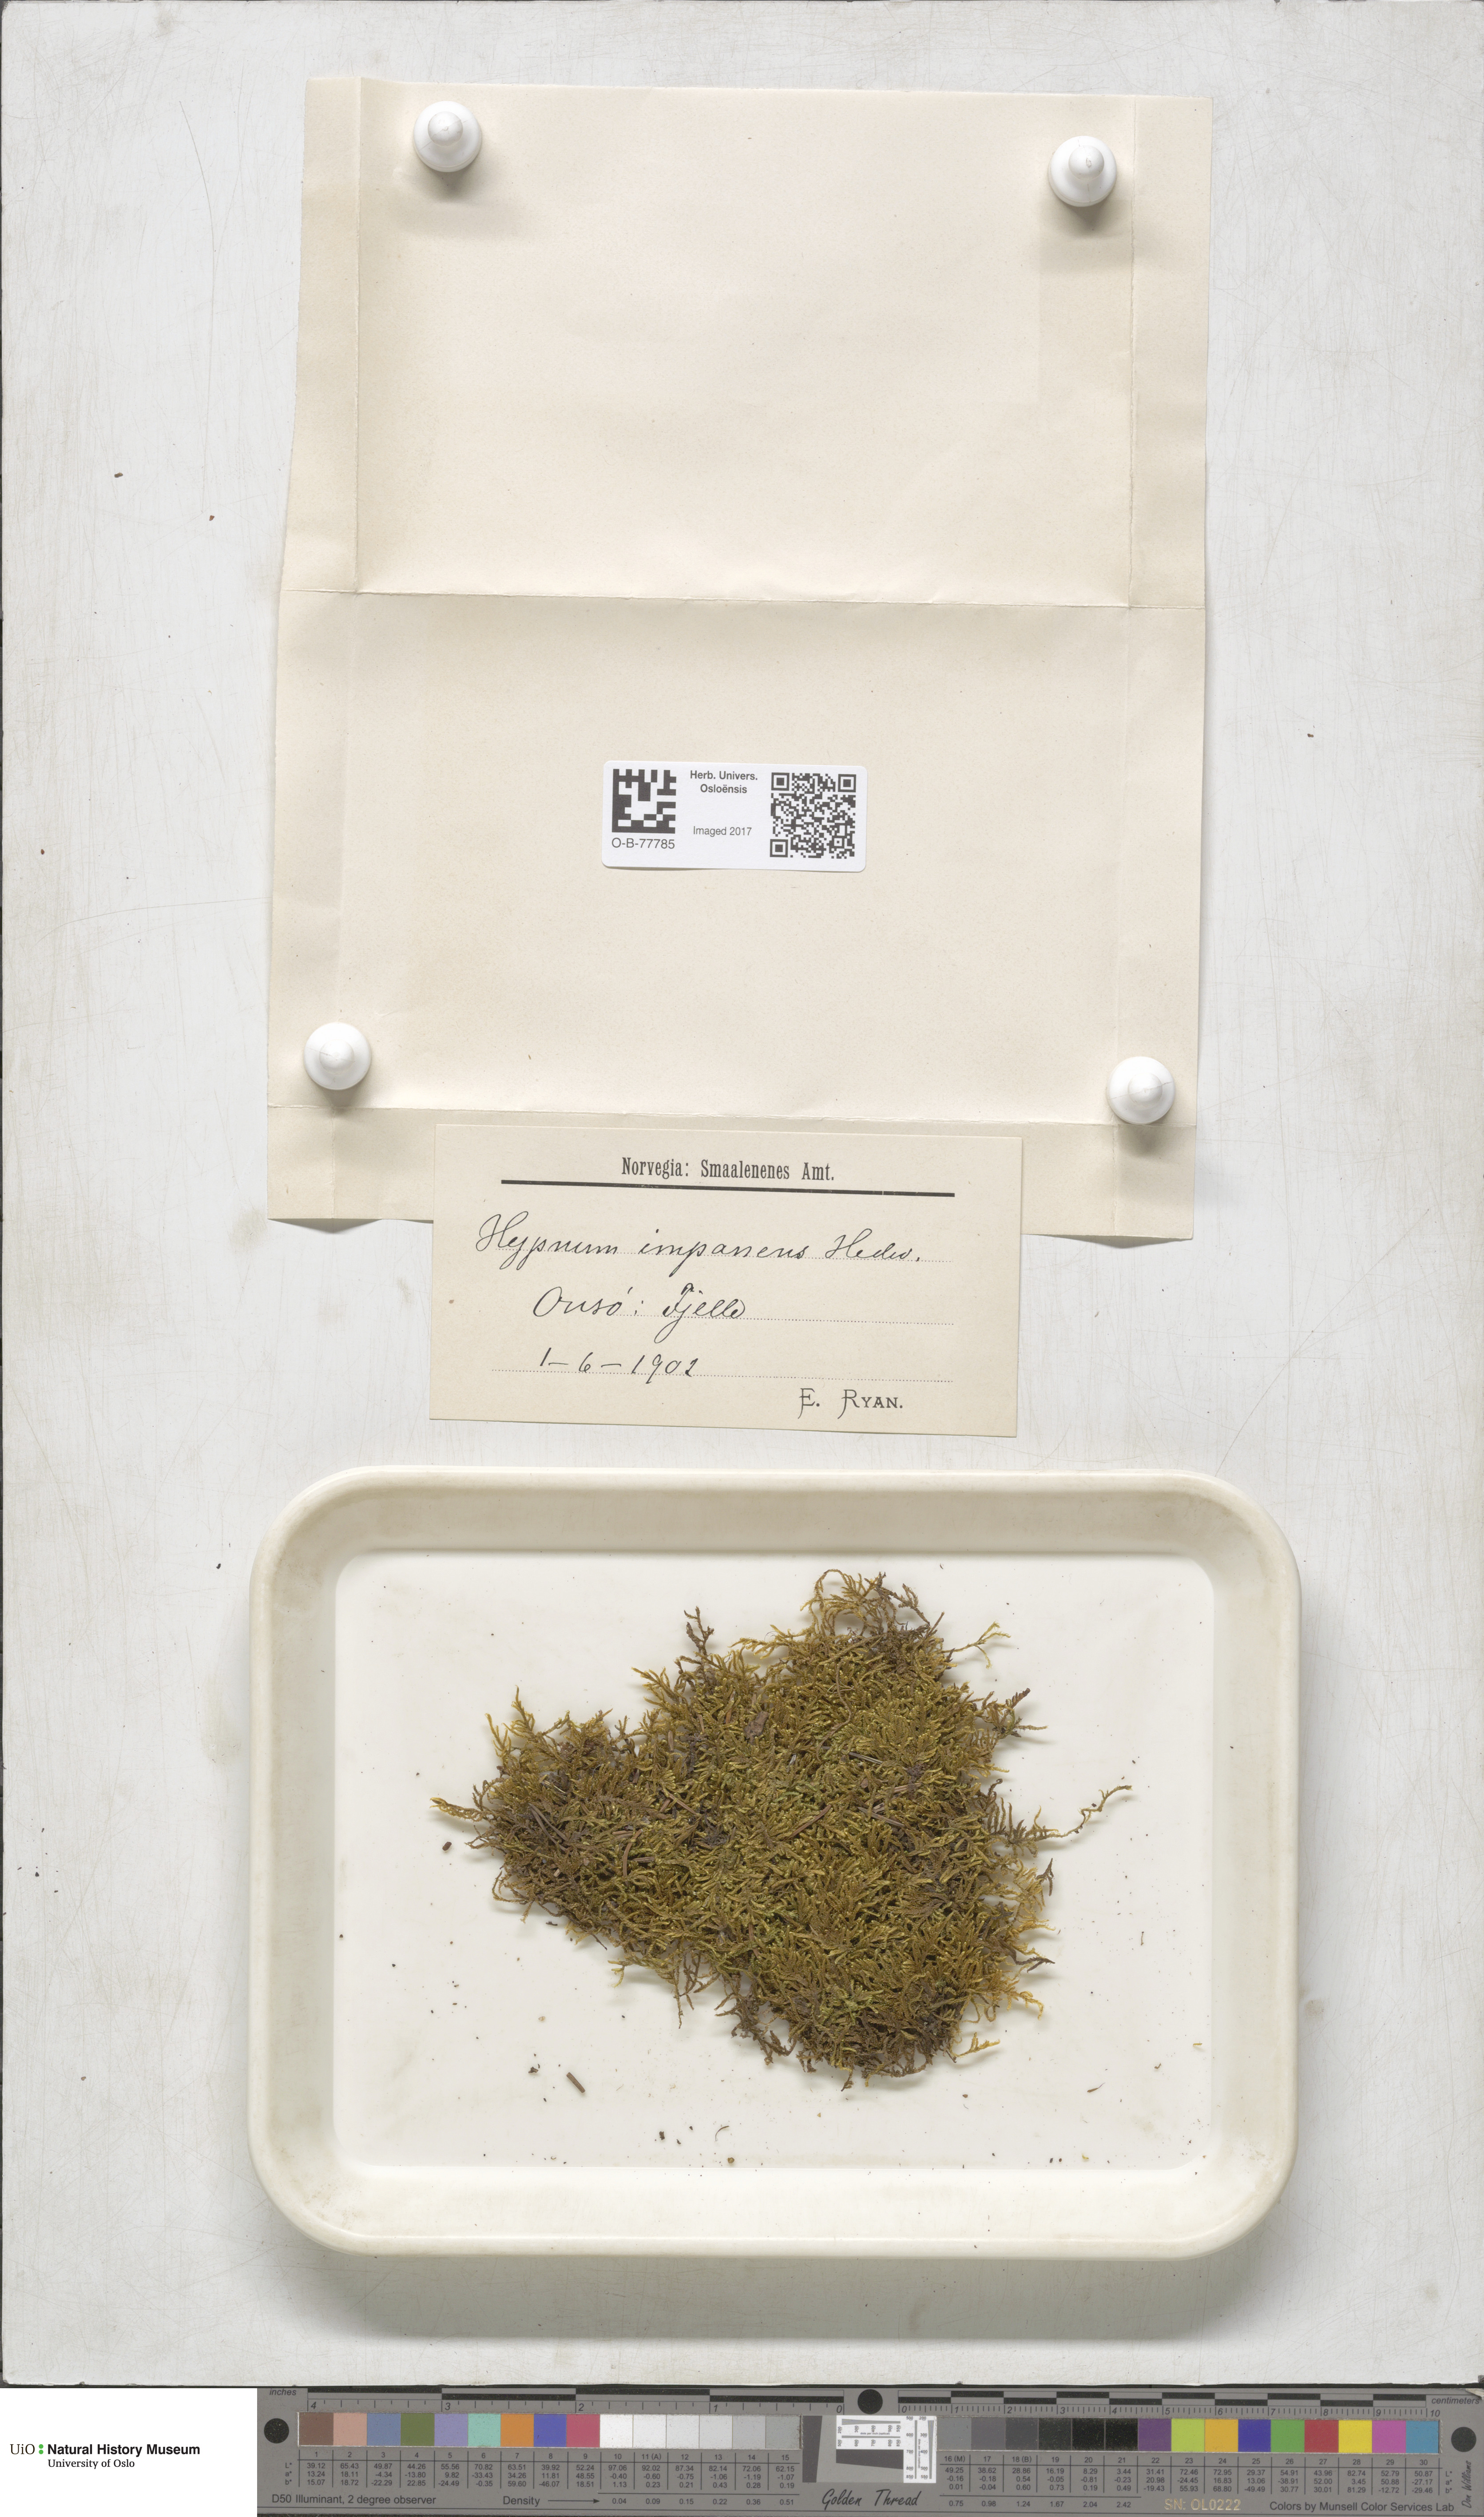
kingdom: Plantae
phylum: Bryophyta
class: Bryopsida
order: Hypnales
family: Callicladiaceae
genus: Callicladium
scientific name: Callicladium imponens
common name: Brocade moss
